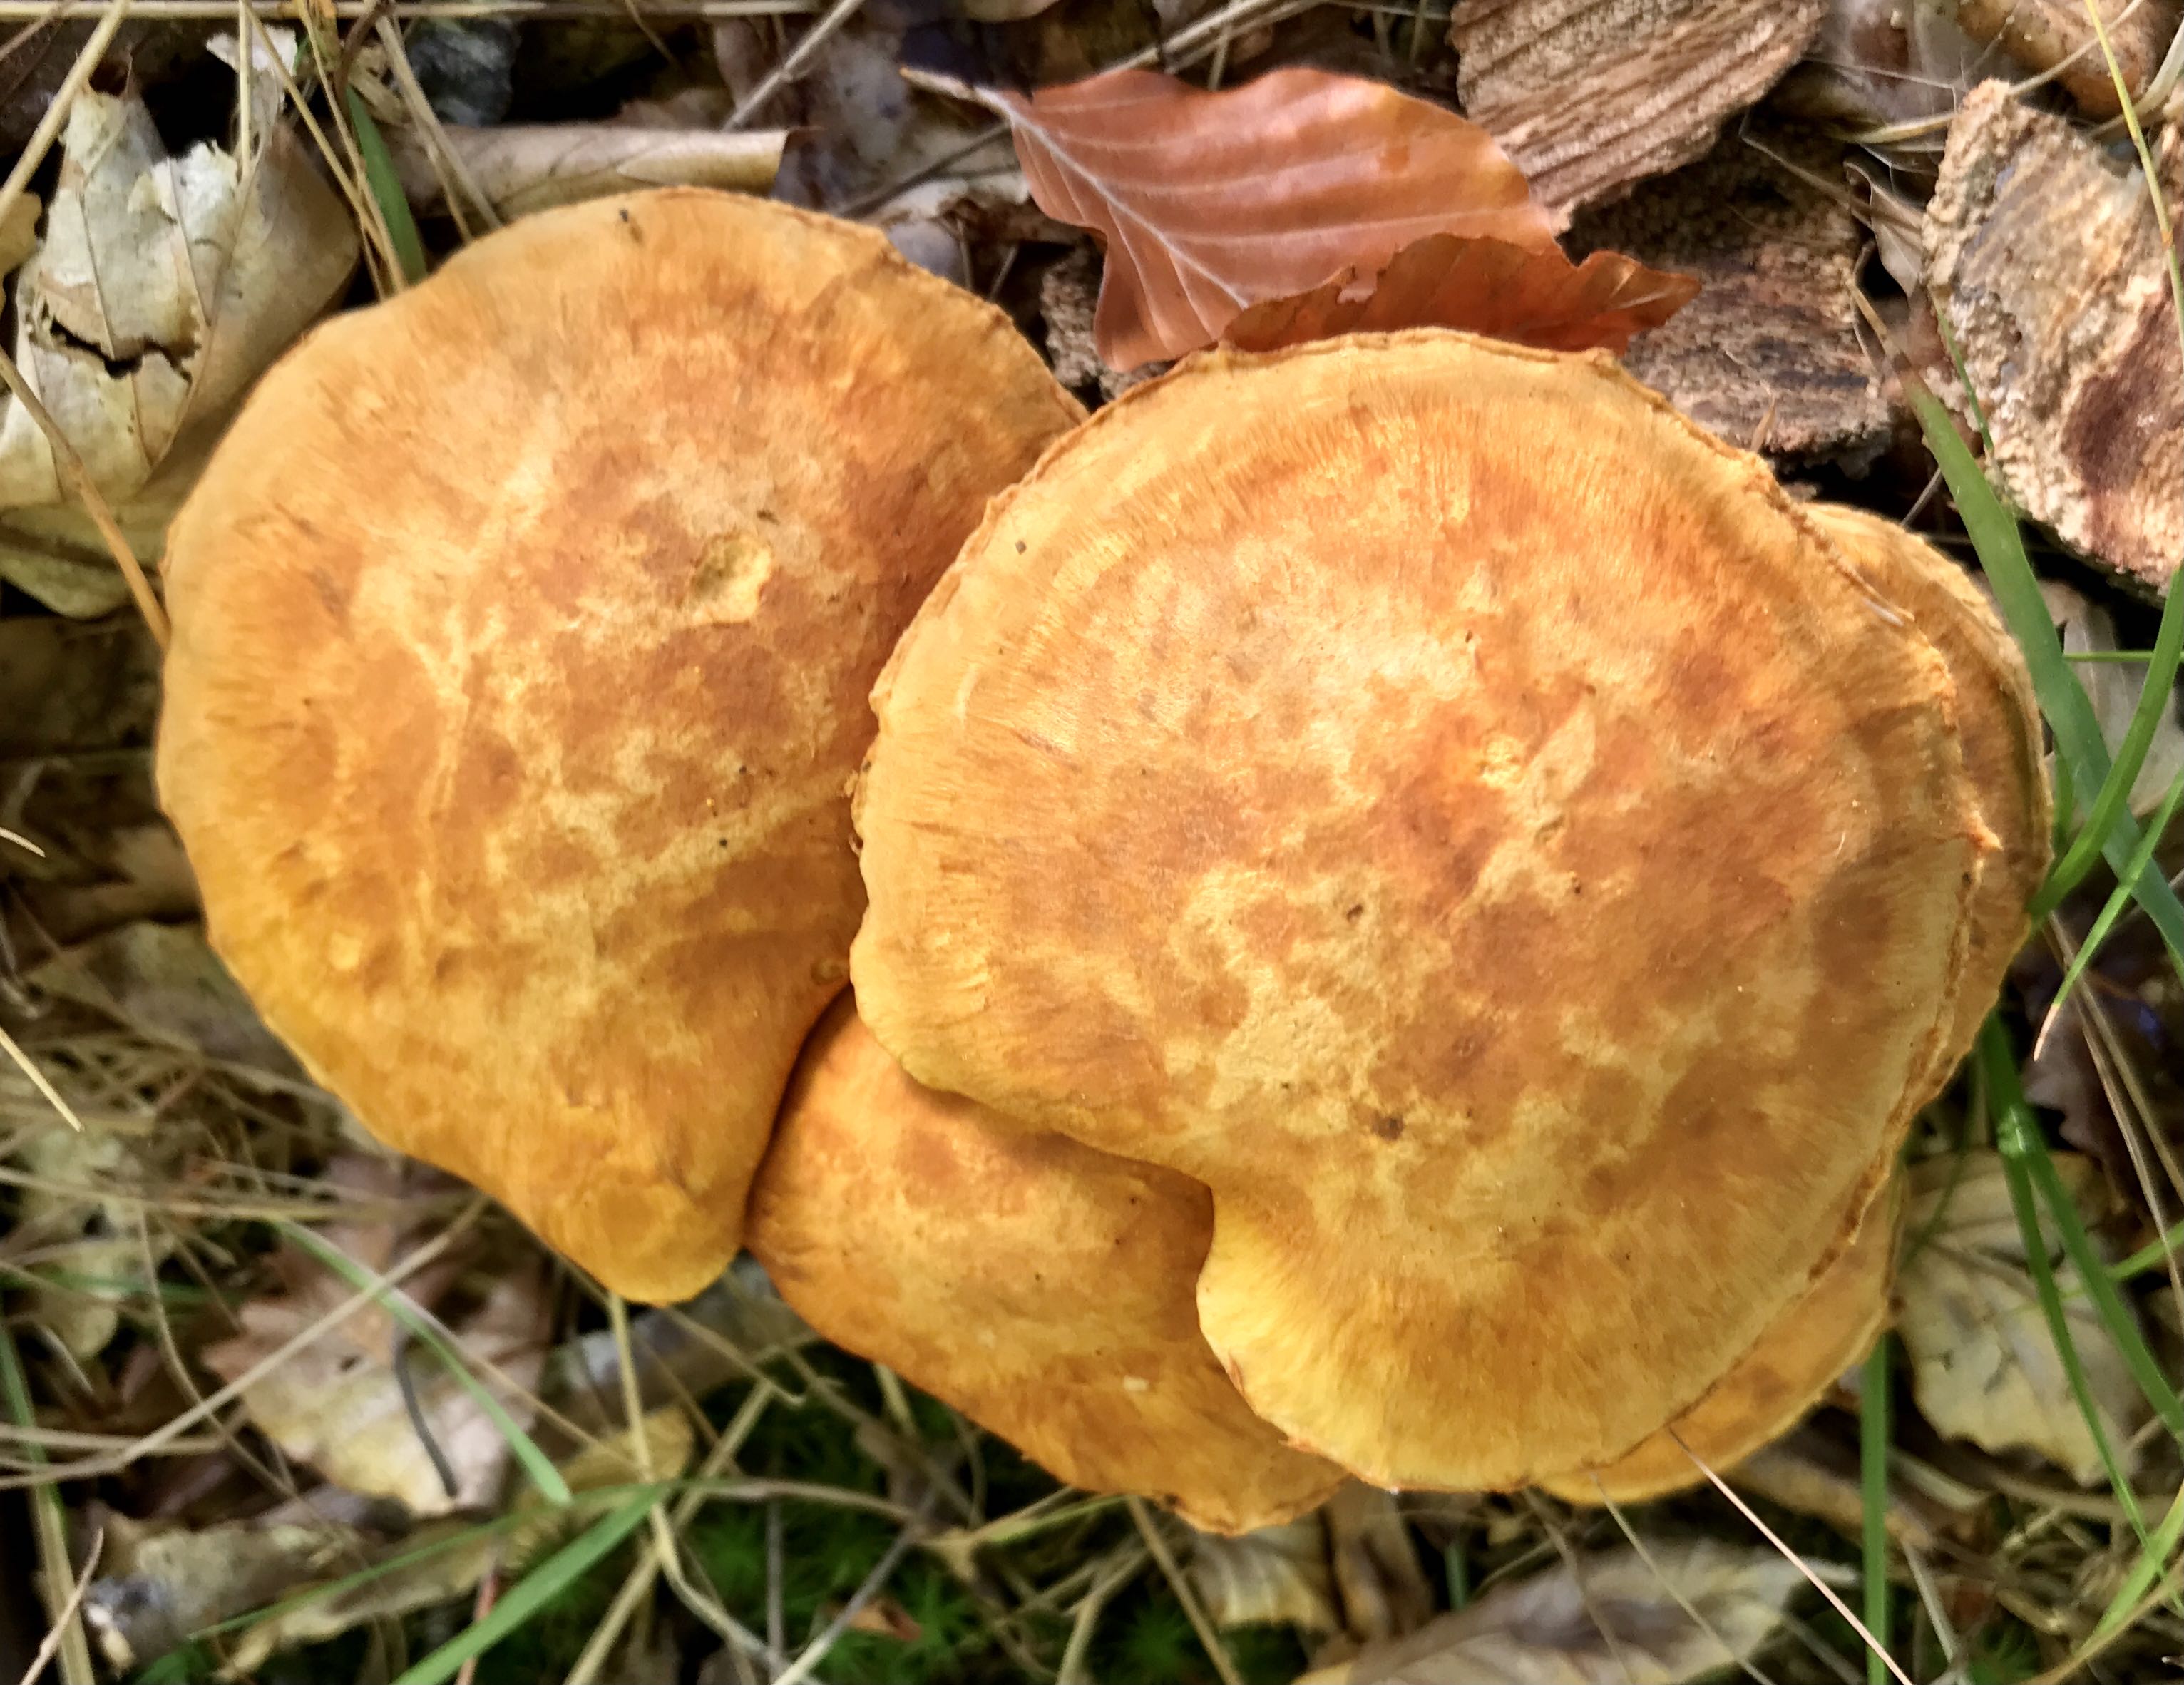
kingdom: Fungi
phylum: Basidiomycota
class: Agaricomycetes
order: Agaricales
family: Hymenogastraceae
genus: Gymnopilus
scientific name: Gymnopilus spectabilis
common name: fibret flammehat
